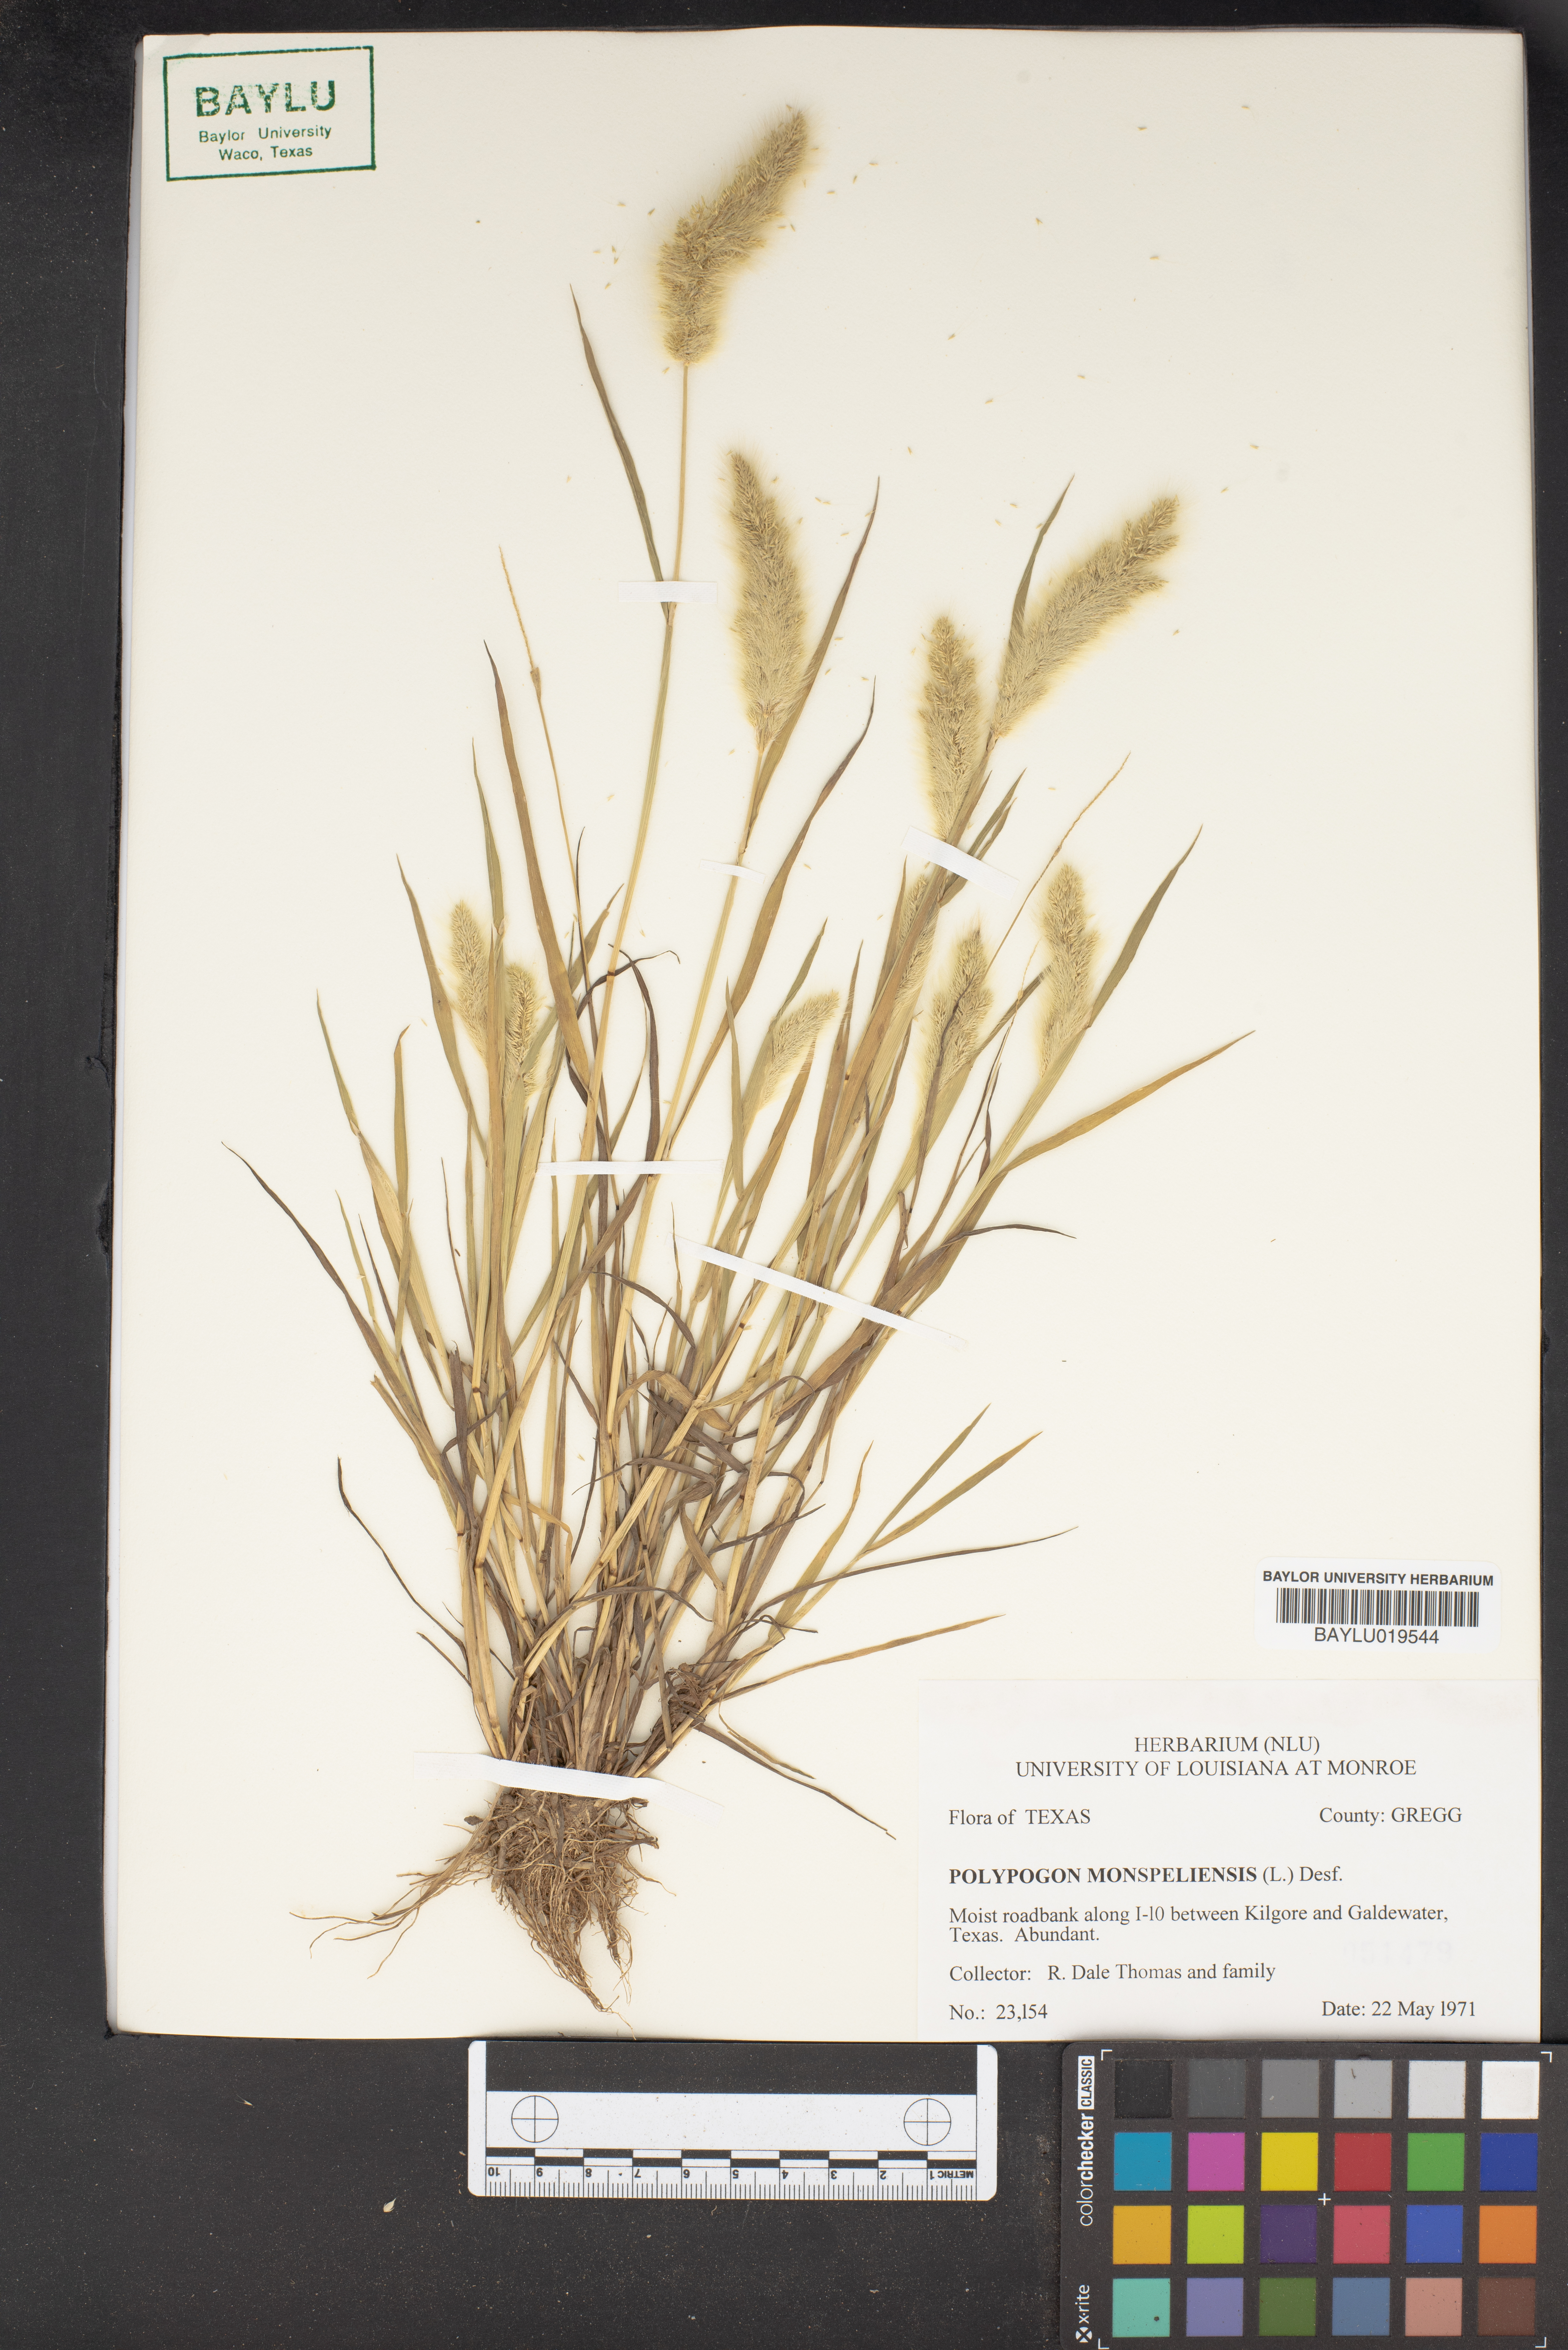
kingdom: Plantae
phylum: Tracheophyta
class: Liliopsida
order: Poales
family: Poaceae
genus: Polypogon
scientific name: Polypogon monspeliensis
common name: Annual rabbitsfoot grass
